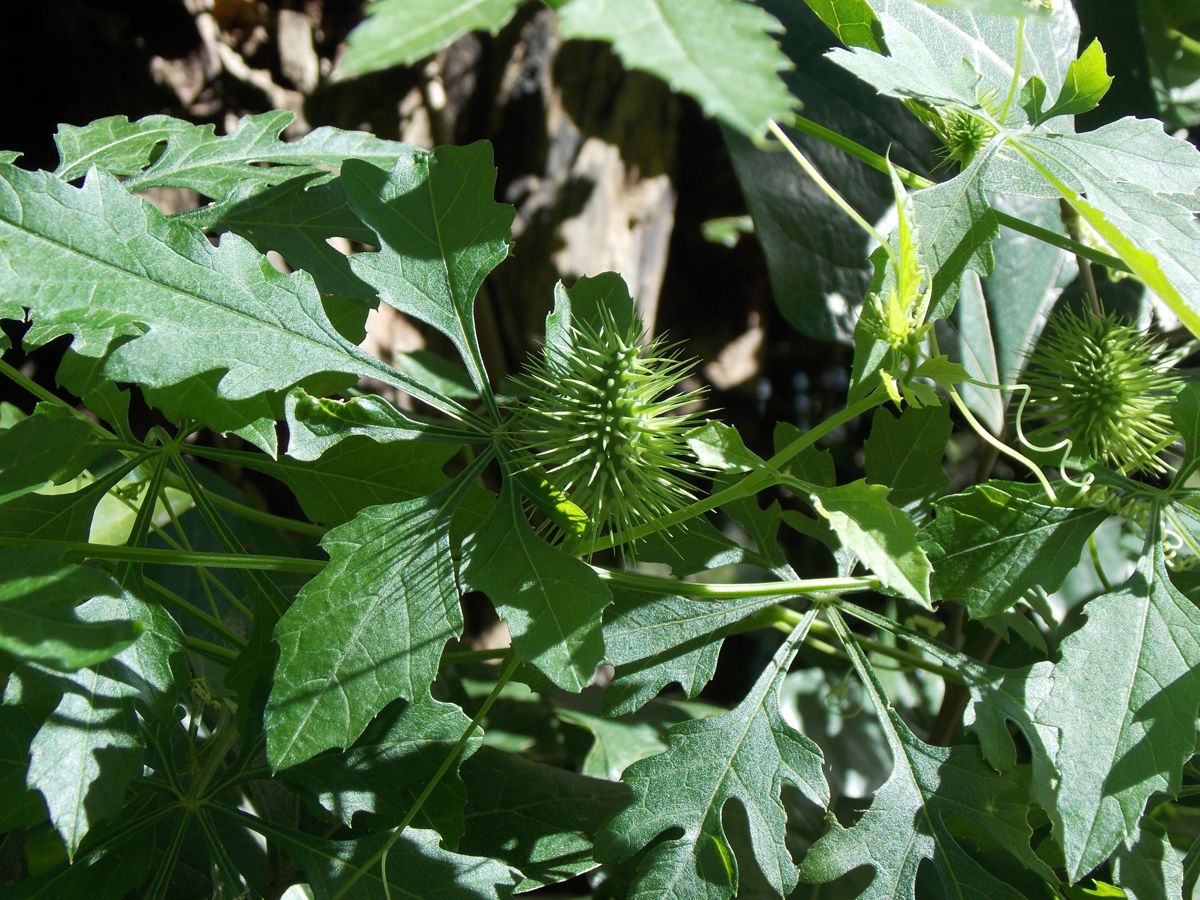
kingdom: Plantae
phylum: Tracheophyta
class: Magnoliopsida
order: Cucurbitales
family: Cucurbitaceae
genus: Cyclanthera
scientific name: Cyclanthera dissecta
